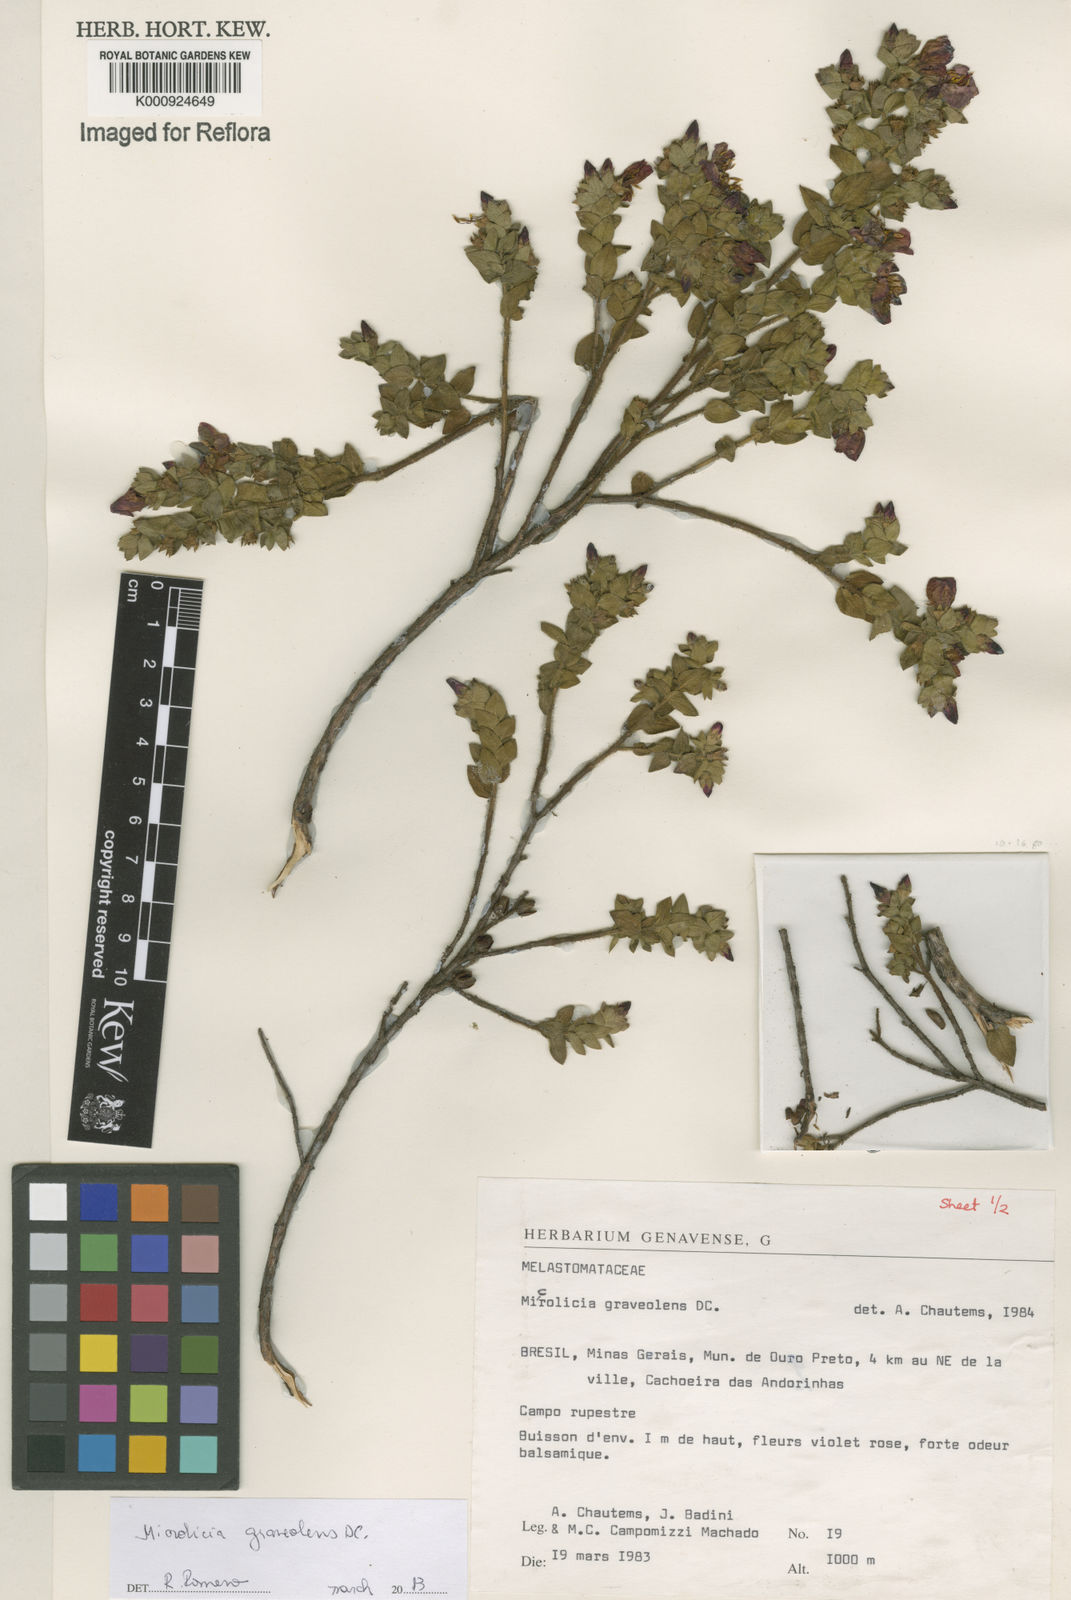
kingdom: Plantae
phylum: Tracheophyta
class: Magnoliopsida
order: Myrtales
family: Melastomataceae
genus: Microlicia
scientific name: Microlicia graveolens
